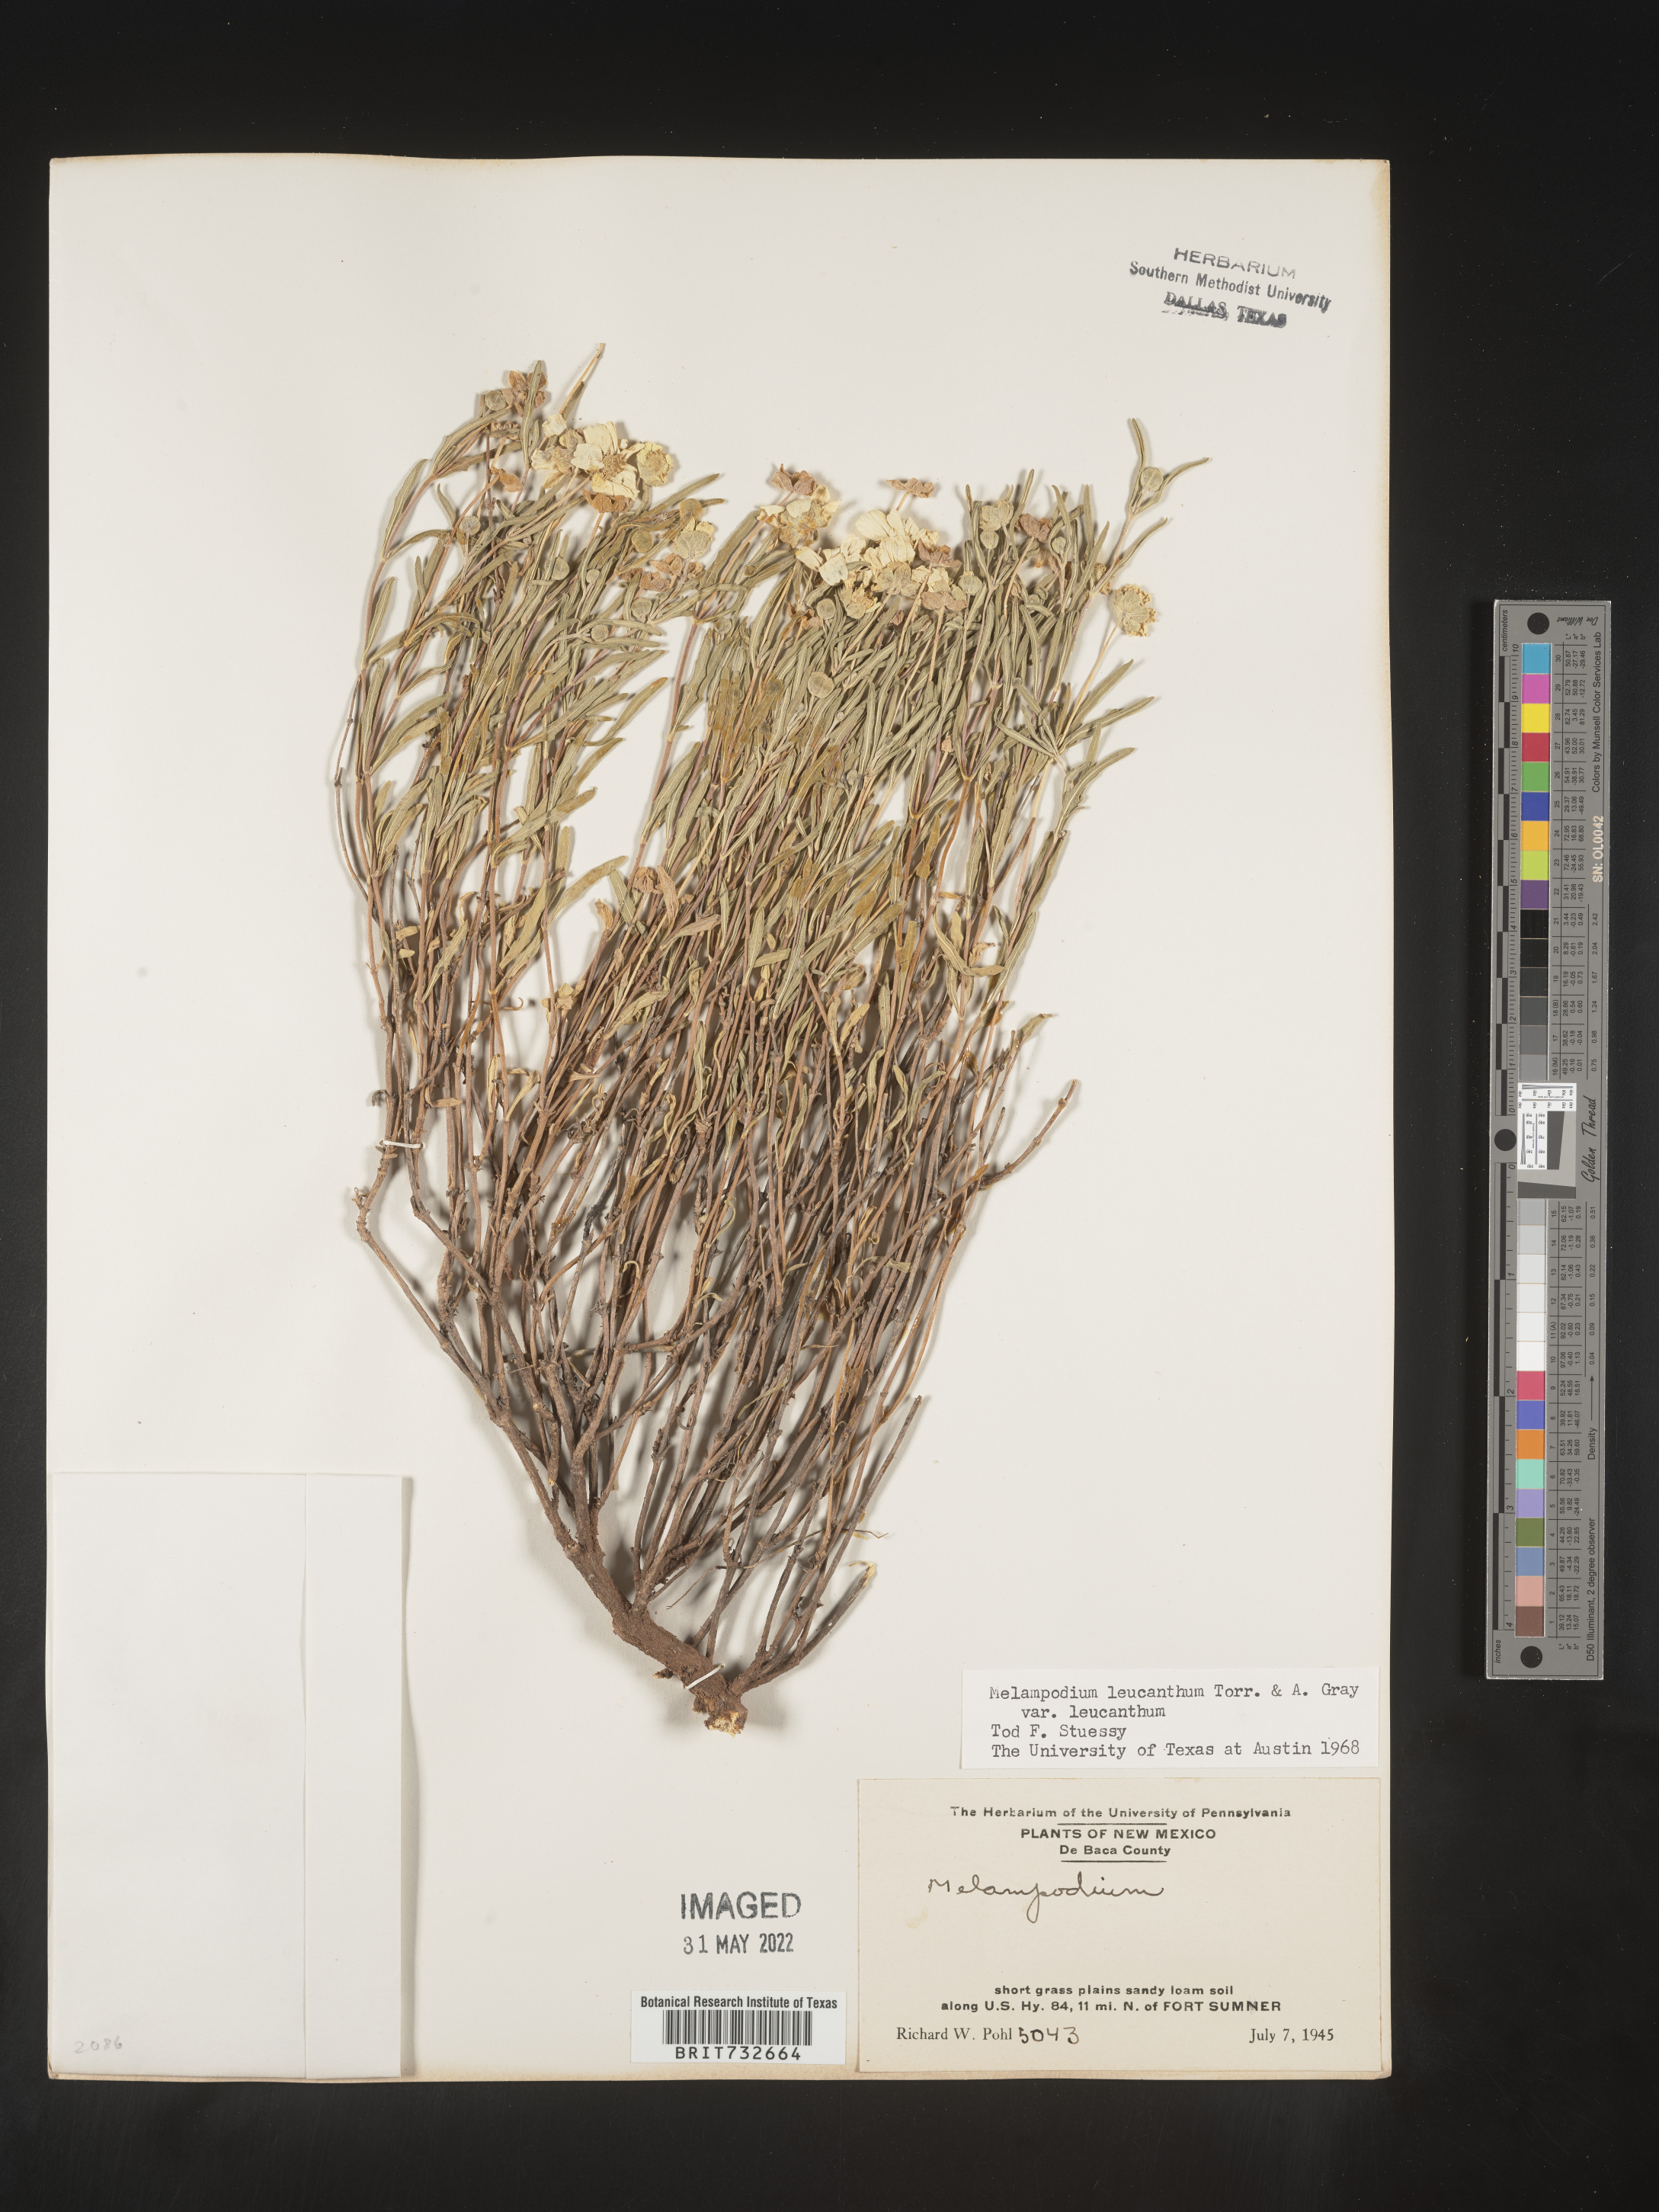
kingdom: Plantae
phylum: Tracheophyta
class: Magnoliopsida
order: Asterales
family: Asteraceae
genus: Melampodium
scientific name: Melampodium leucanthum
